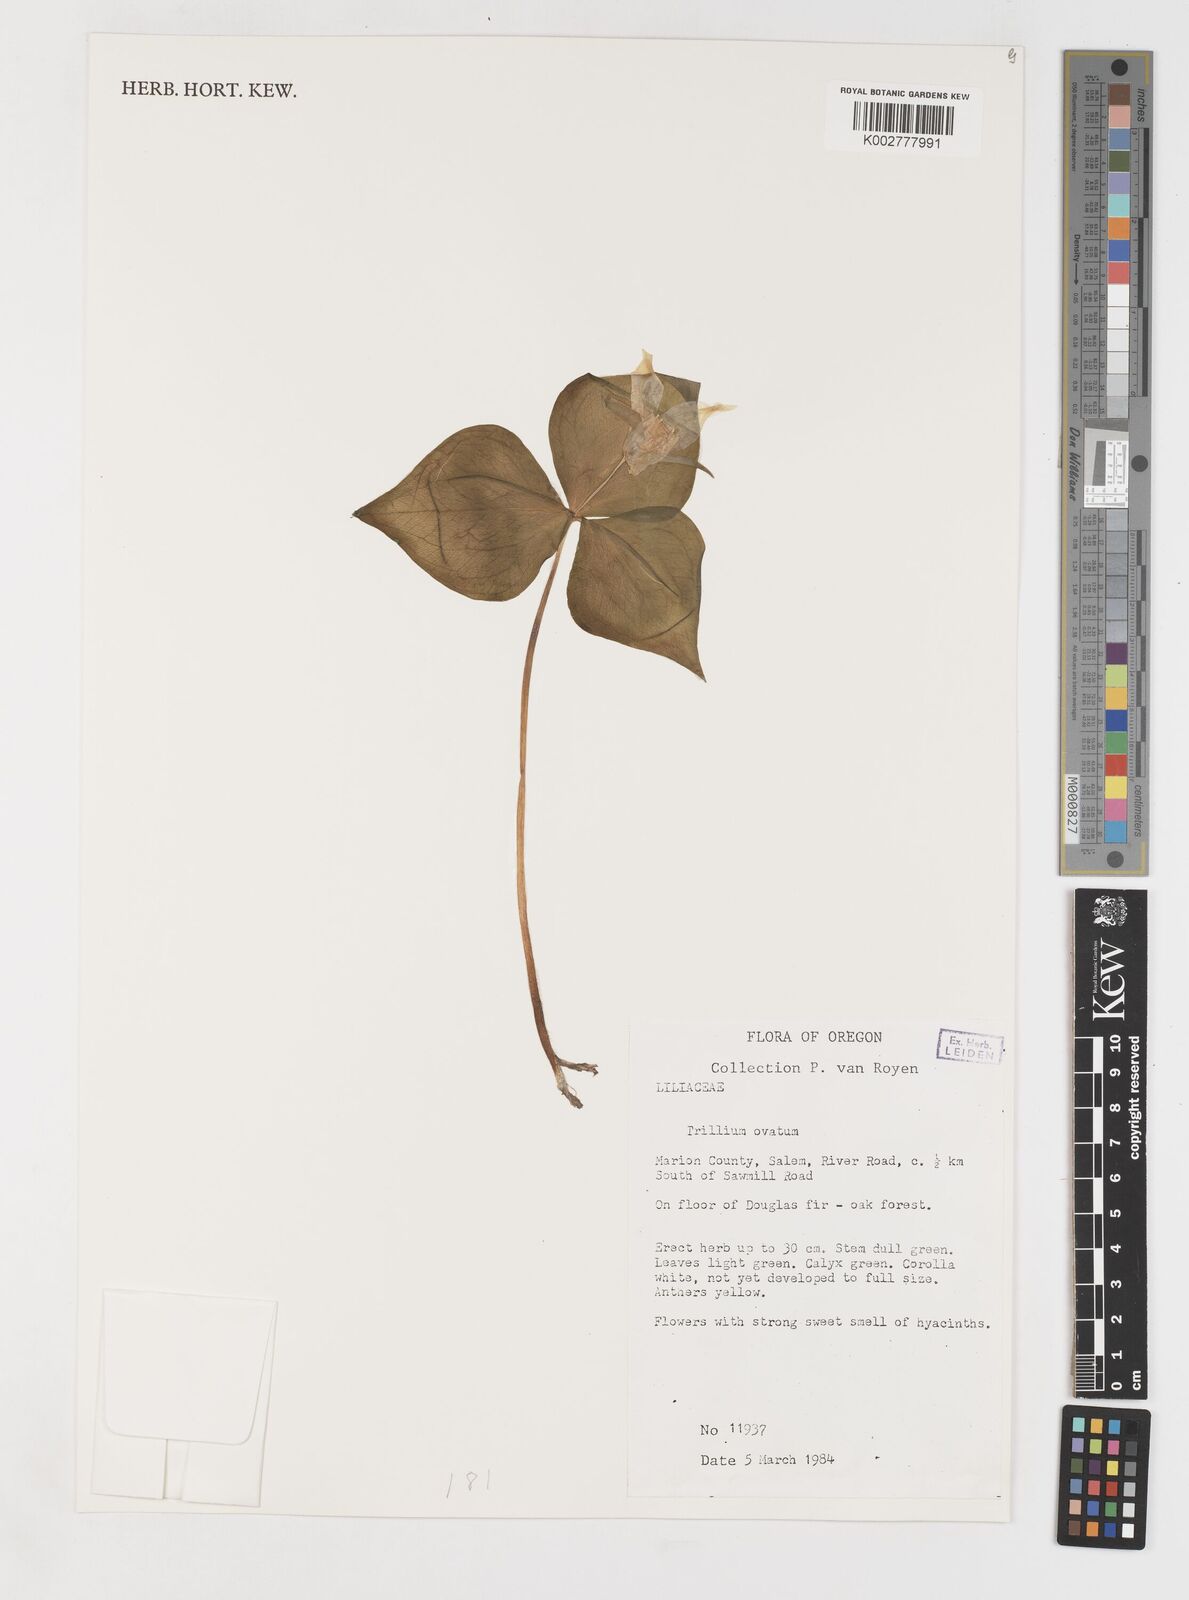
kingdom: Plantae
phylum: Tracheophyta
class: Liliopsida
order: Liliales
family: Melanthiaceae
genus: Trillium
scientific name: Trillium ovatum
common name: Pacific trillium
